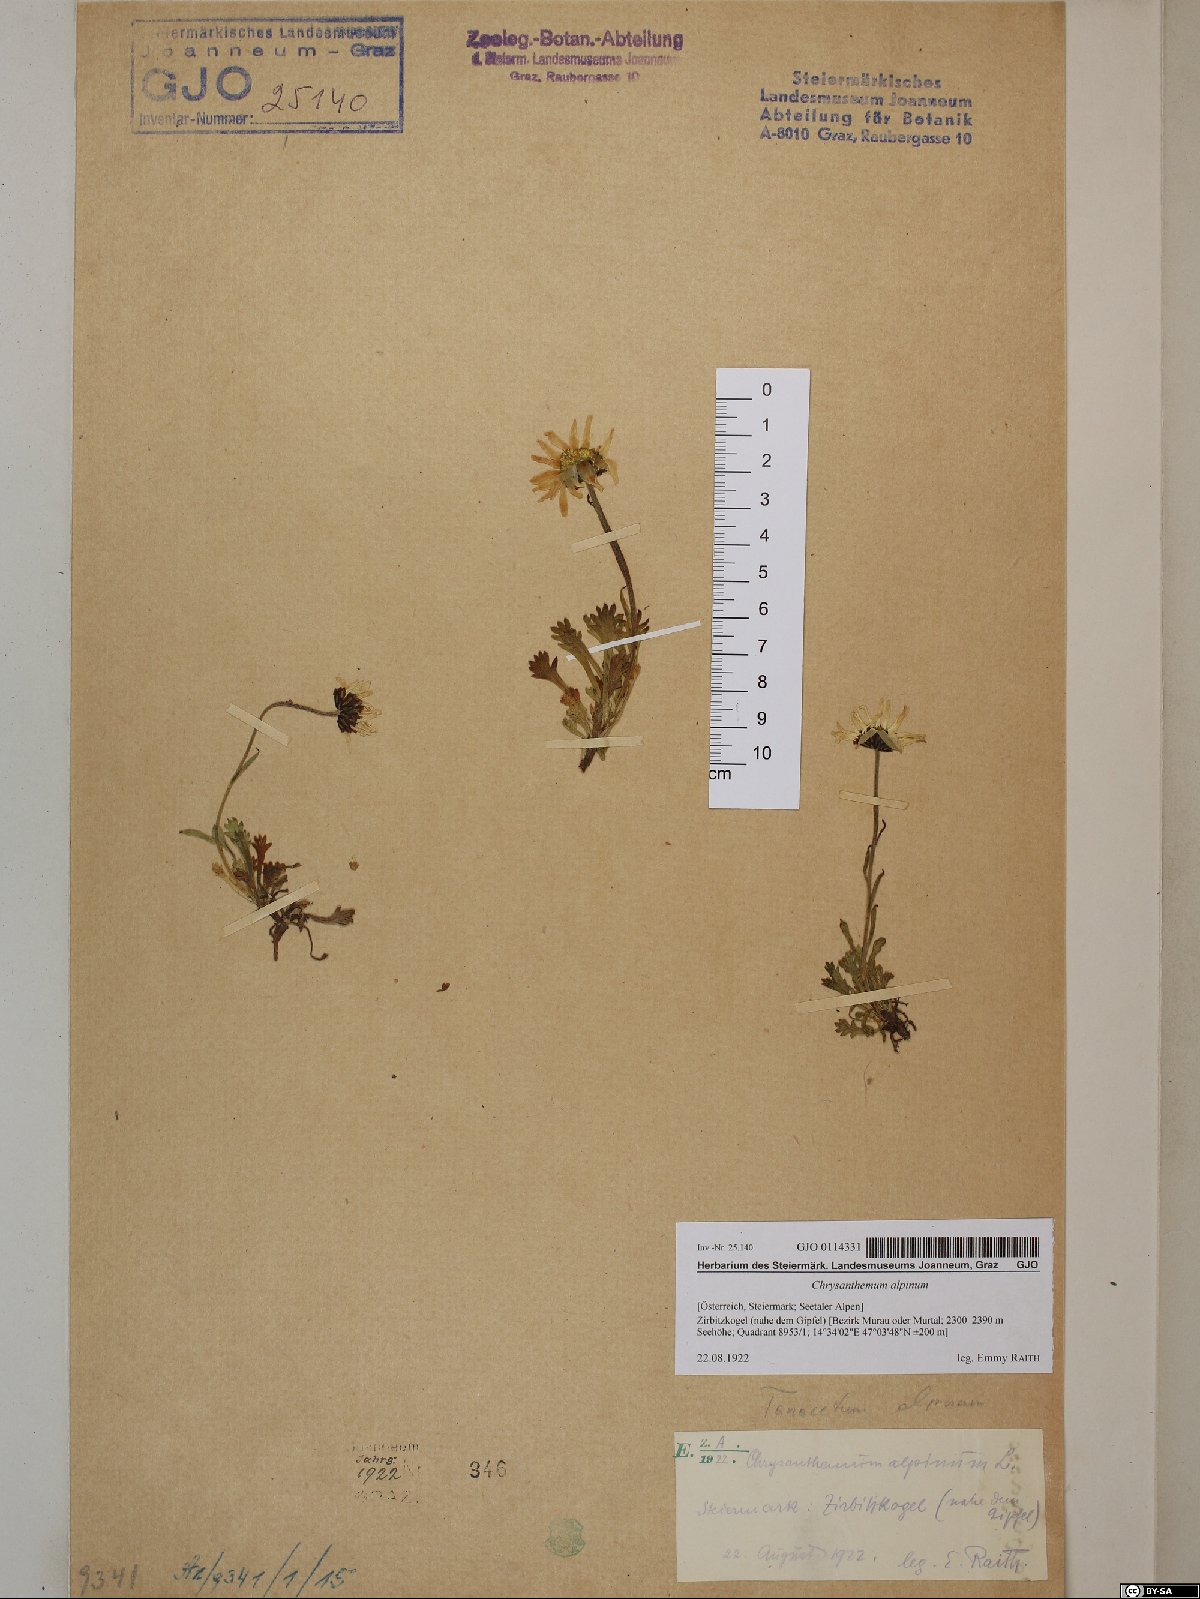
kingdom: Plantae
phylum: Tracheophyta
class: Magnoliopsida
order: Asterales
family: Asteraceae
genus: Leucanthemopsis
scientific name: Leucanthemopsis alpina
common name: Alpine moon daisy
